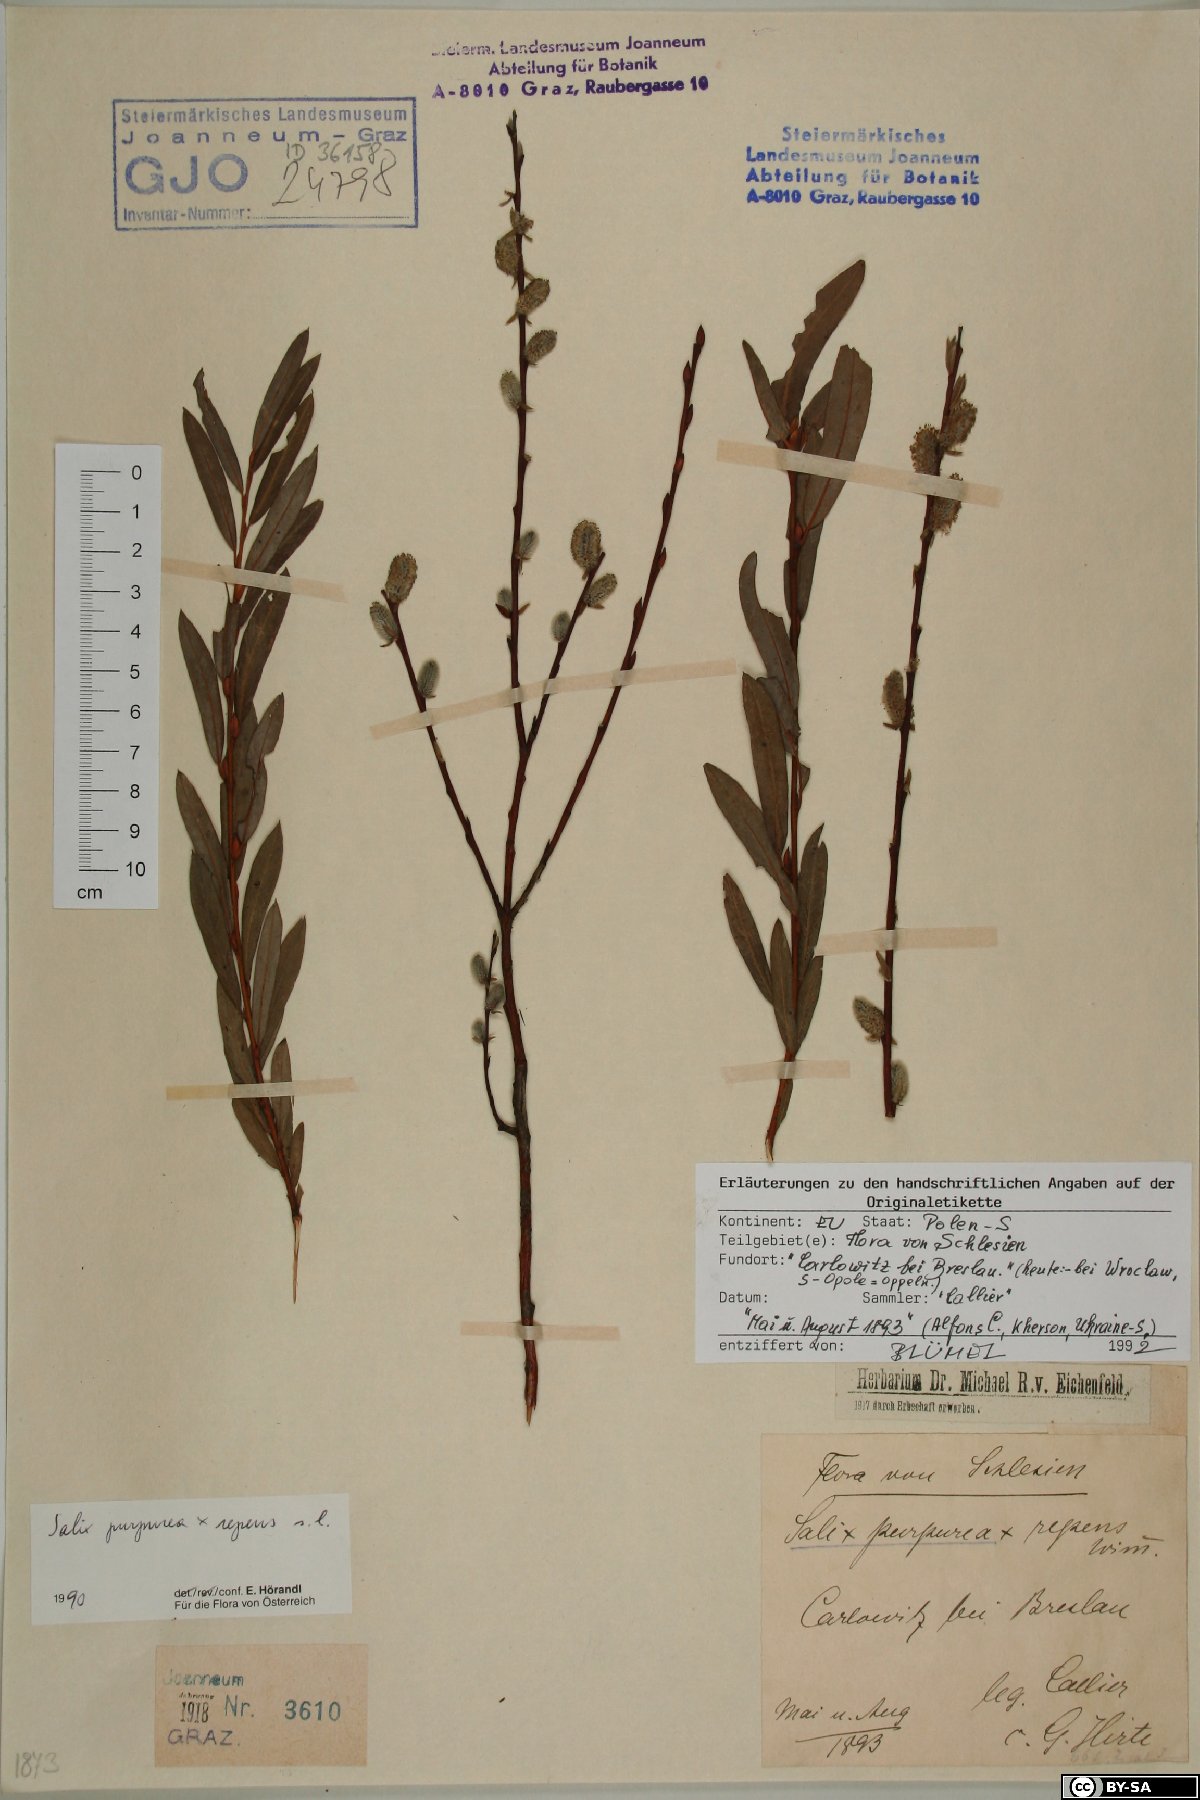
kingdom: Plantae
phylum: Tracheophyta
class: Magnoliopsida
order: Malpighiales
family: Salicaceae
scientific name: Salicaceae
